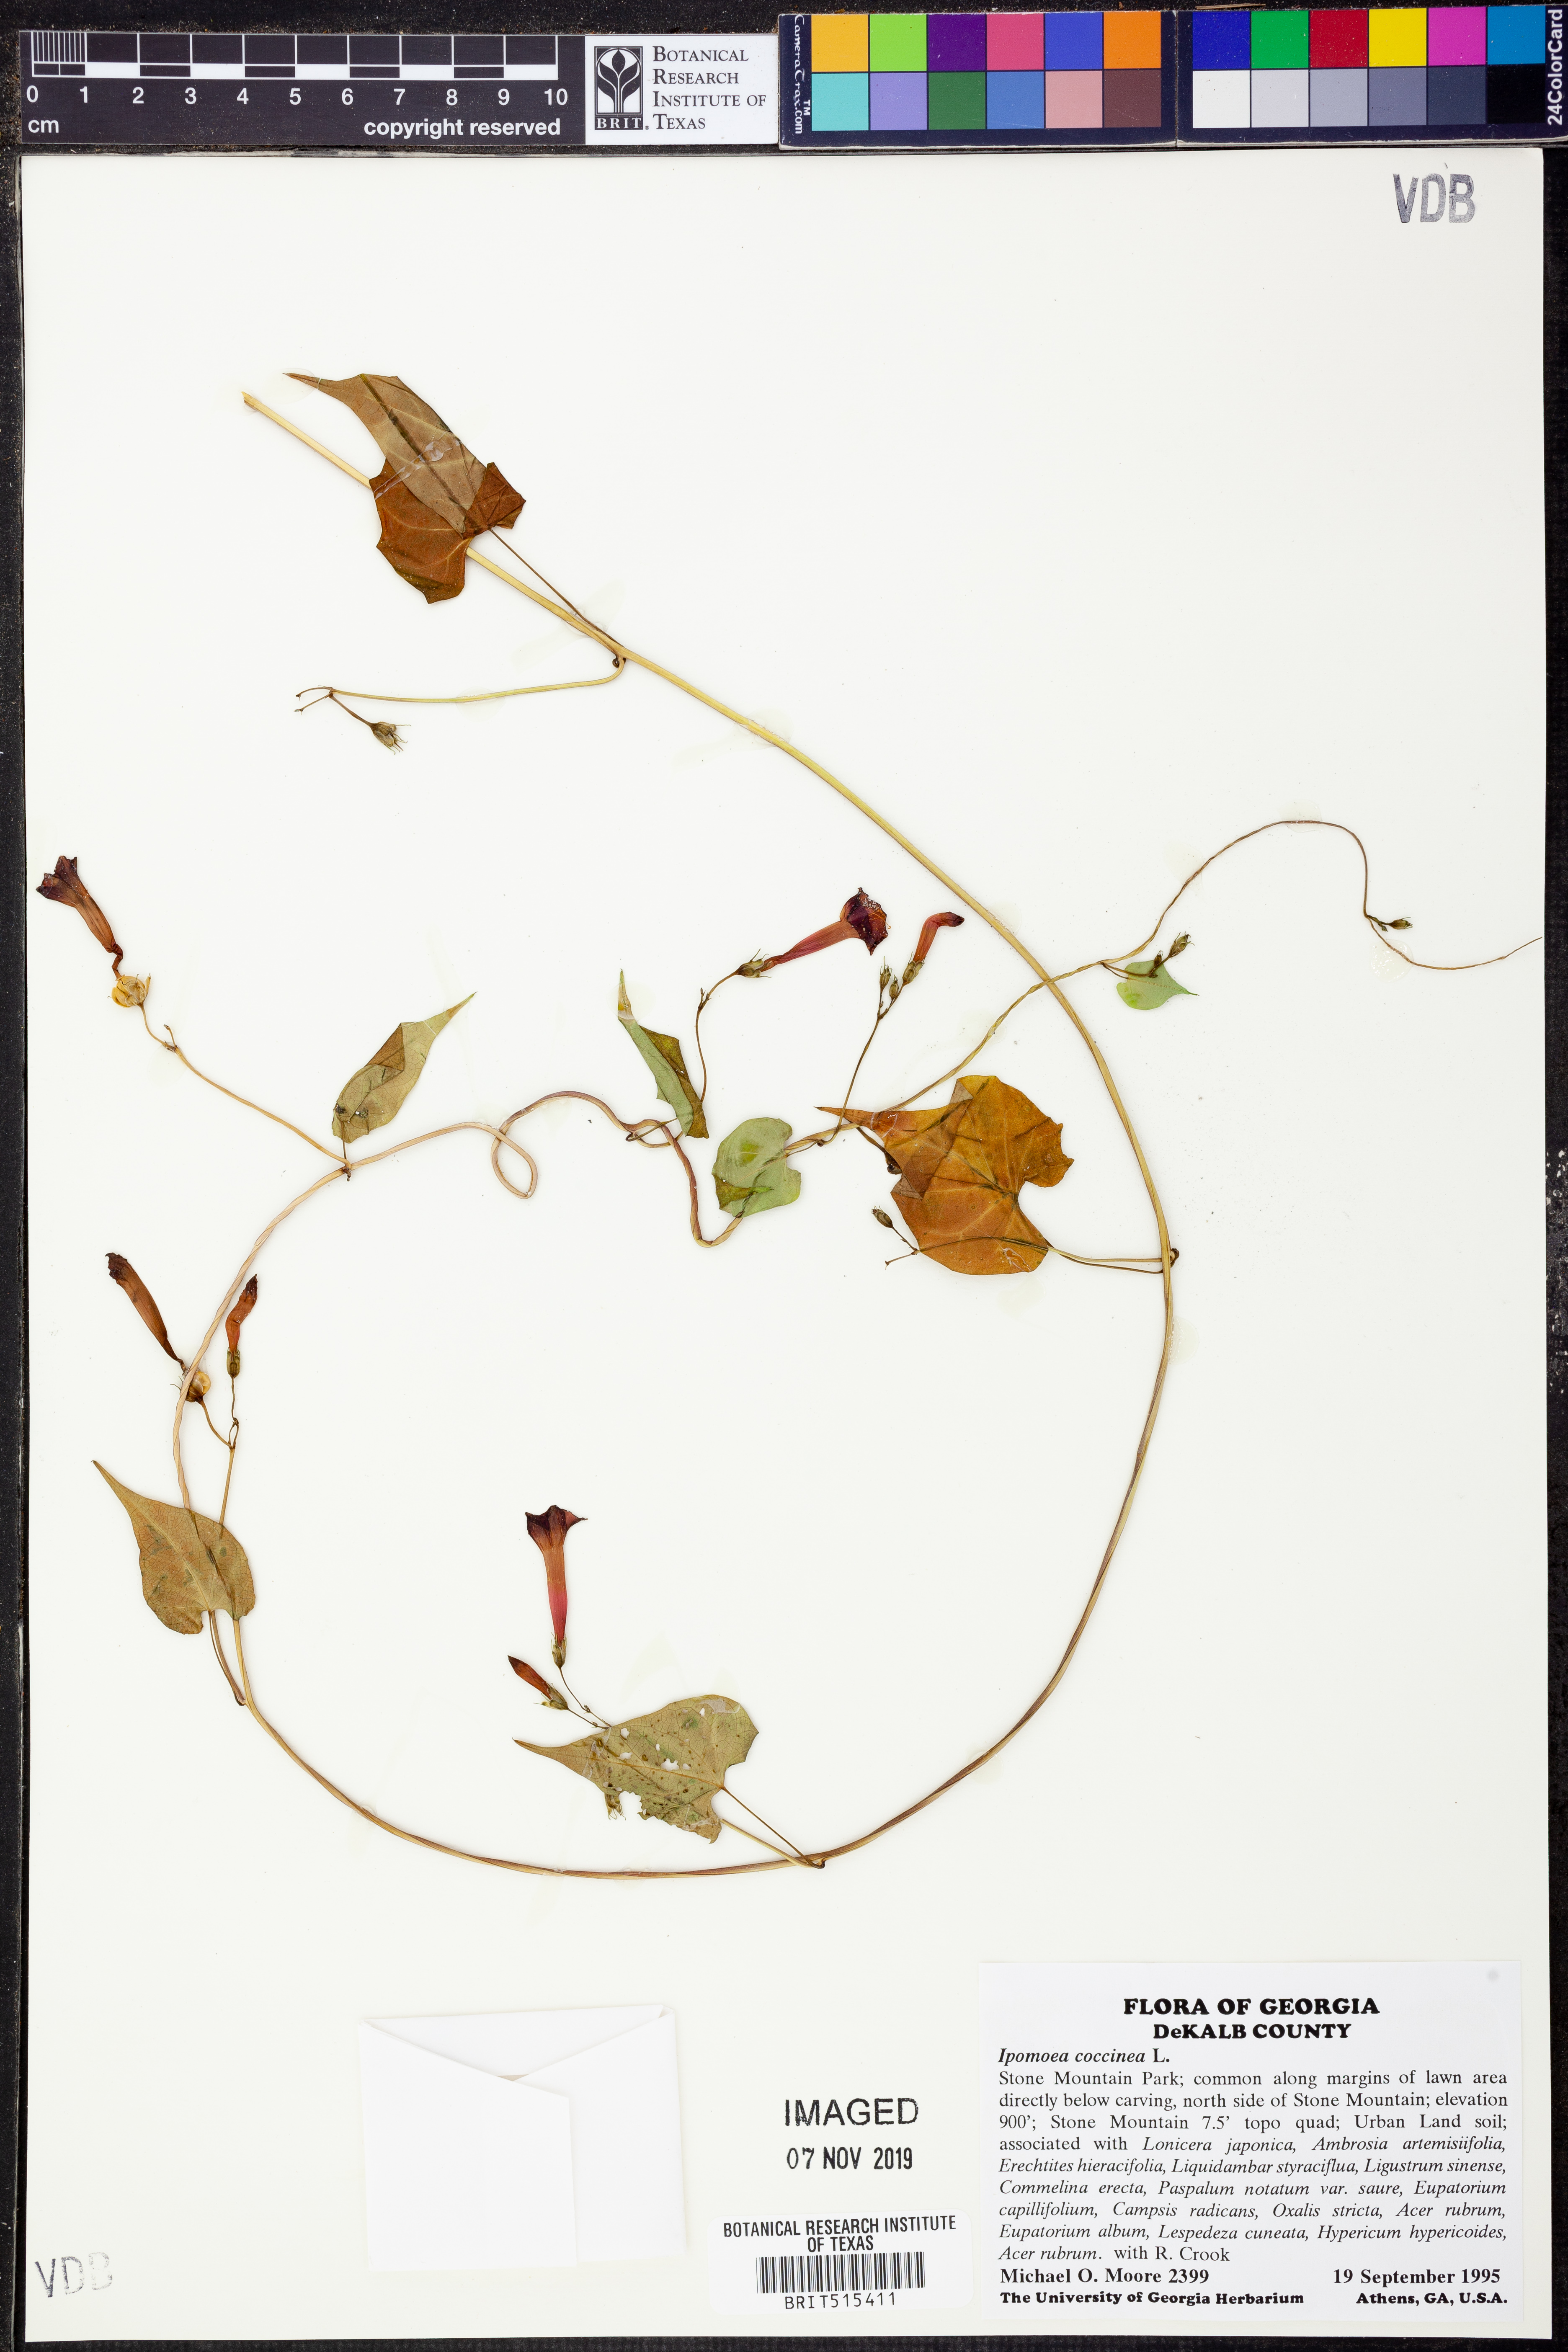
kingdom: Plantae
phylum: Tracheophyta
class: Magnoliopsida
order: Solanales
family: Convolvulaceae
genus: Ipomoea
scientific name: Ipomoea coccinea
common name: Red morning-glory
